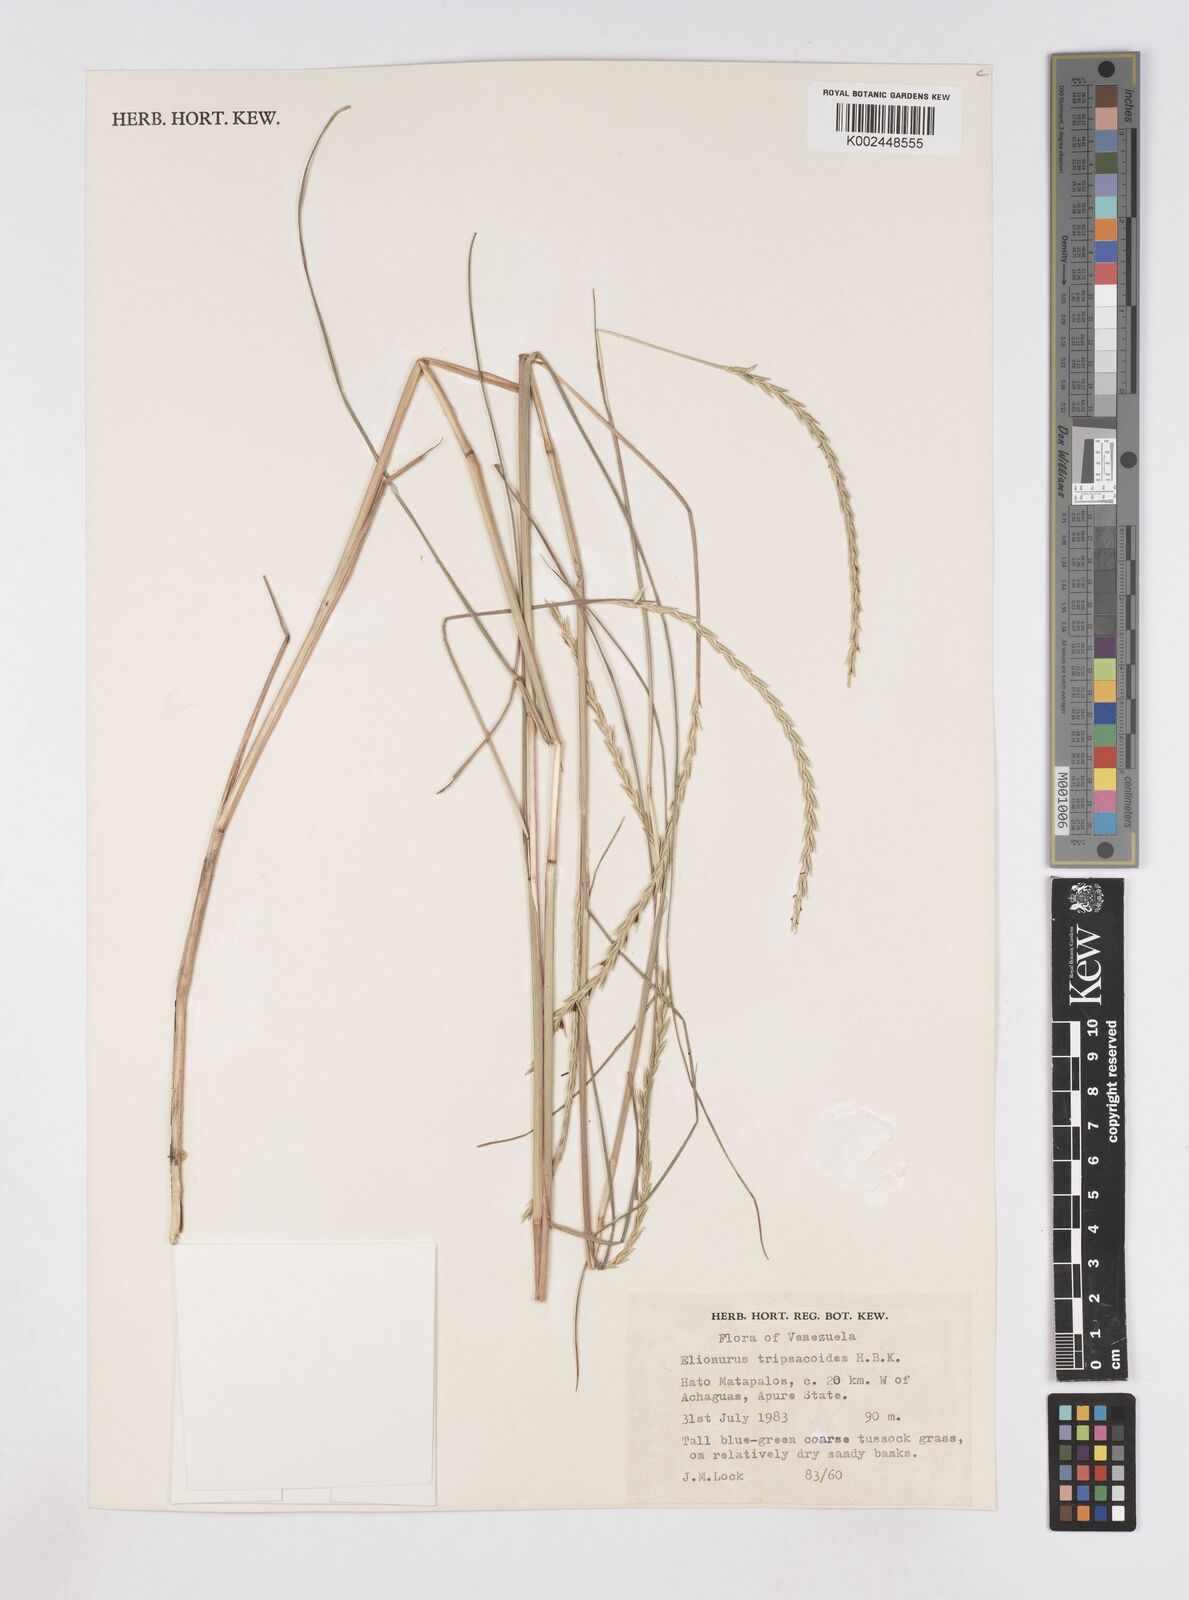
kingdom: Plantae
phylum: Tracheophyta
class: Liliopsida
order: Poales
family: Poaceae
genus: Elionurus
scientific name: Elionurus tripsacoides
